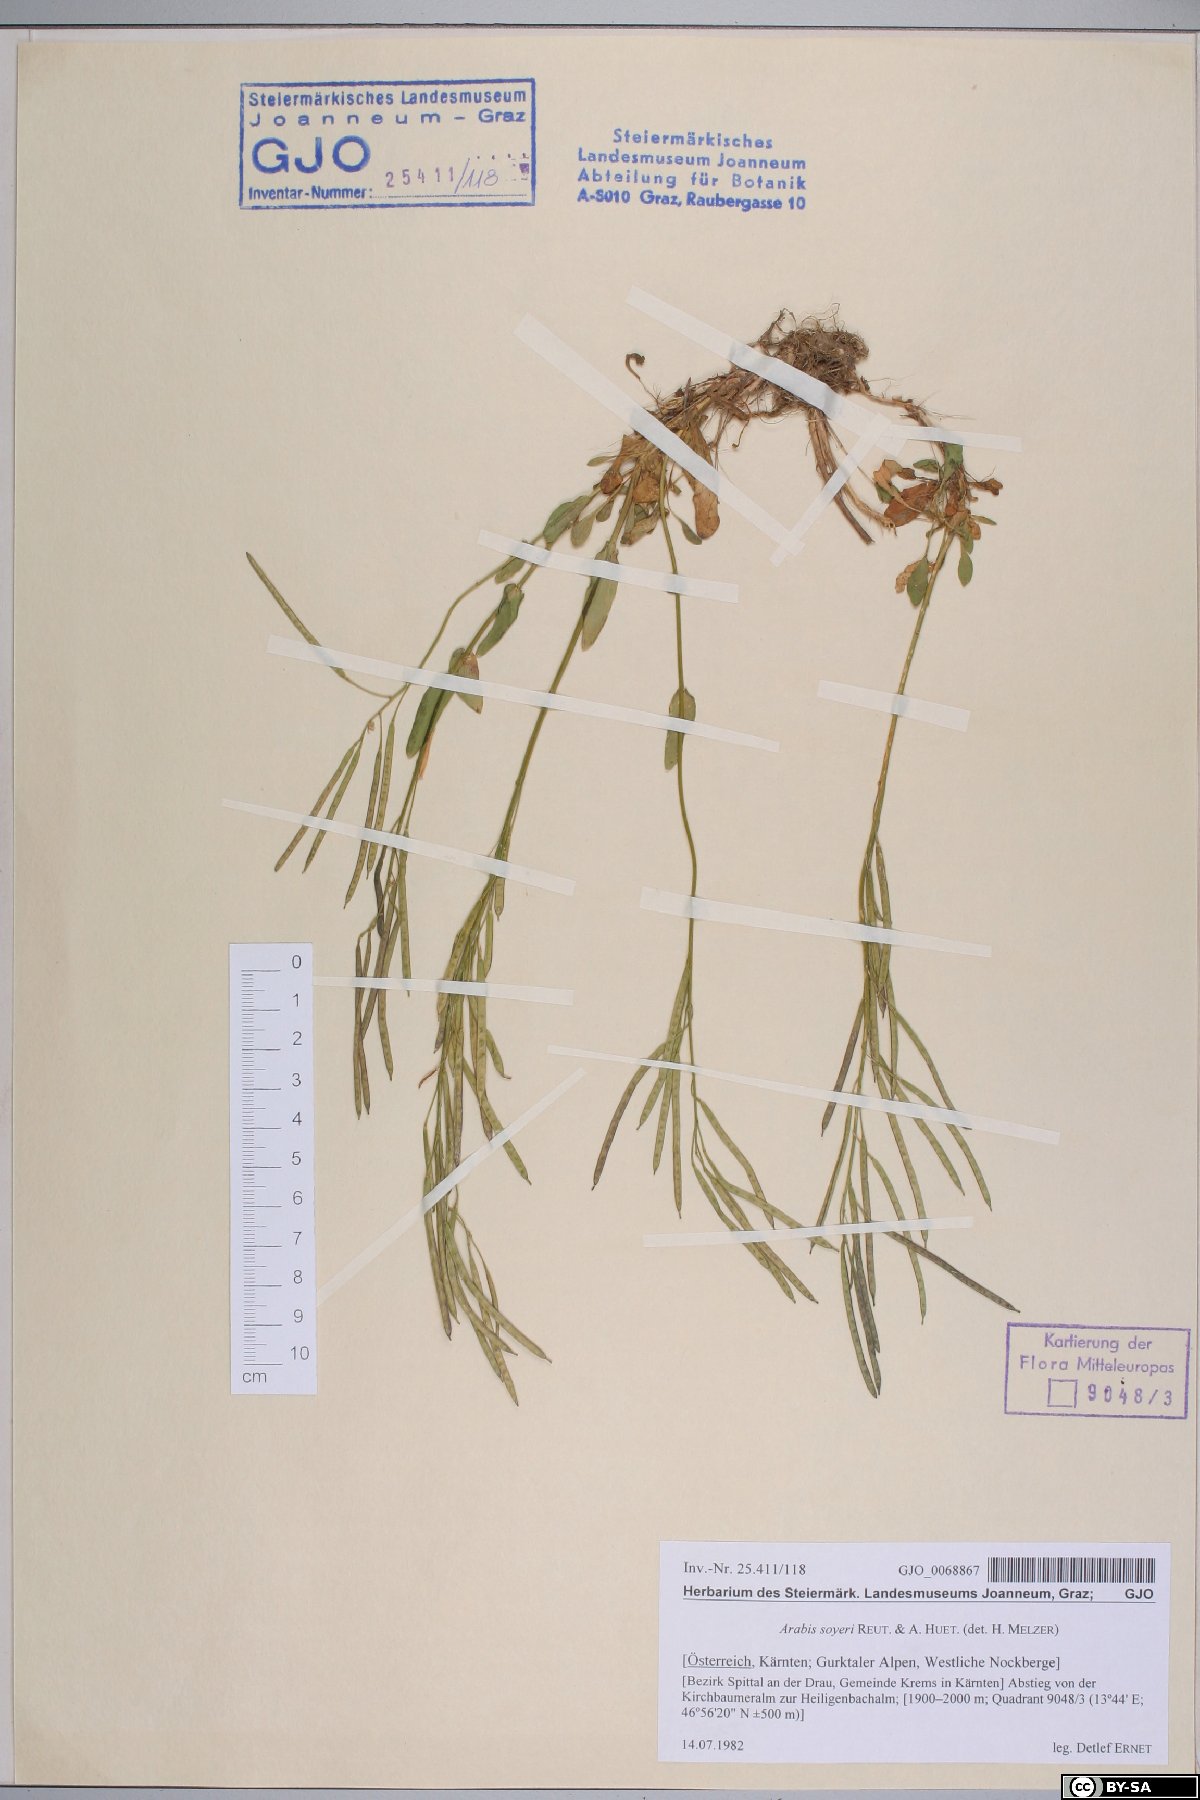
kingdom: Plantae
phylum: Tracheophyta
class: Magnoliopsida
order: Brassicales
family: Brassicaceae
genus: Arabis
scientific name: Arabis soyeri
